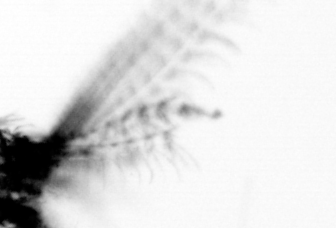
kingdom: Animalia
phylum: Arthropoda
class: Maxillopoda
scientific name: Maxillopoda
